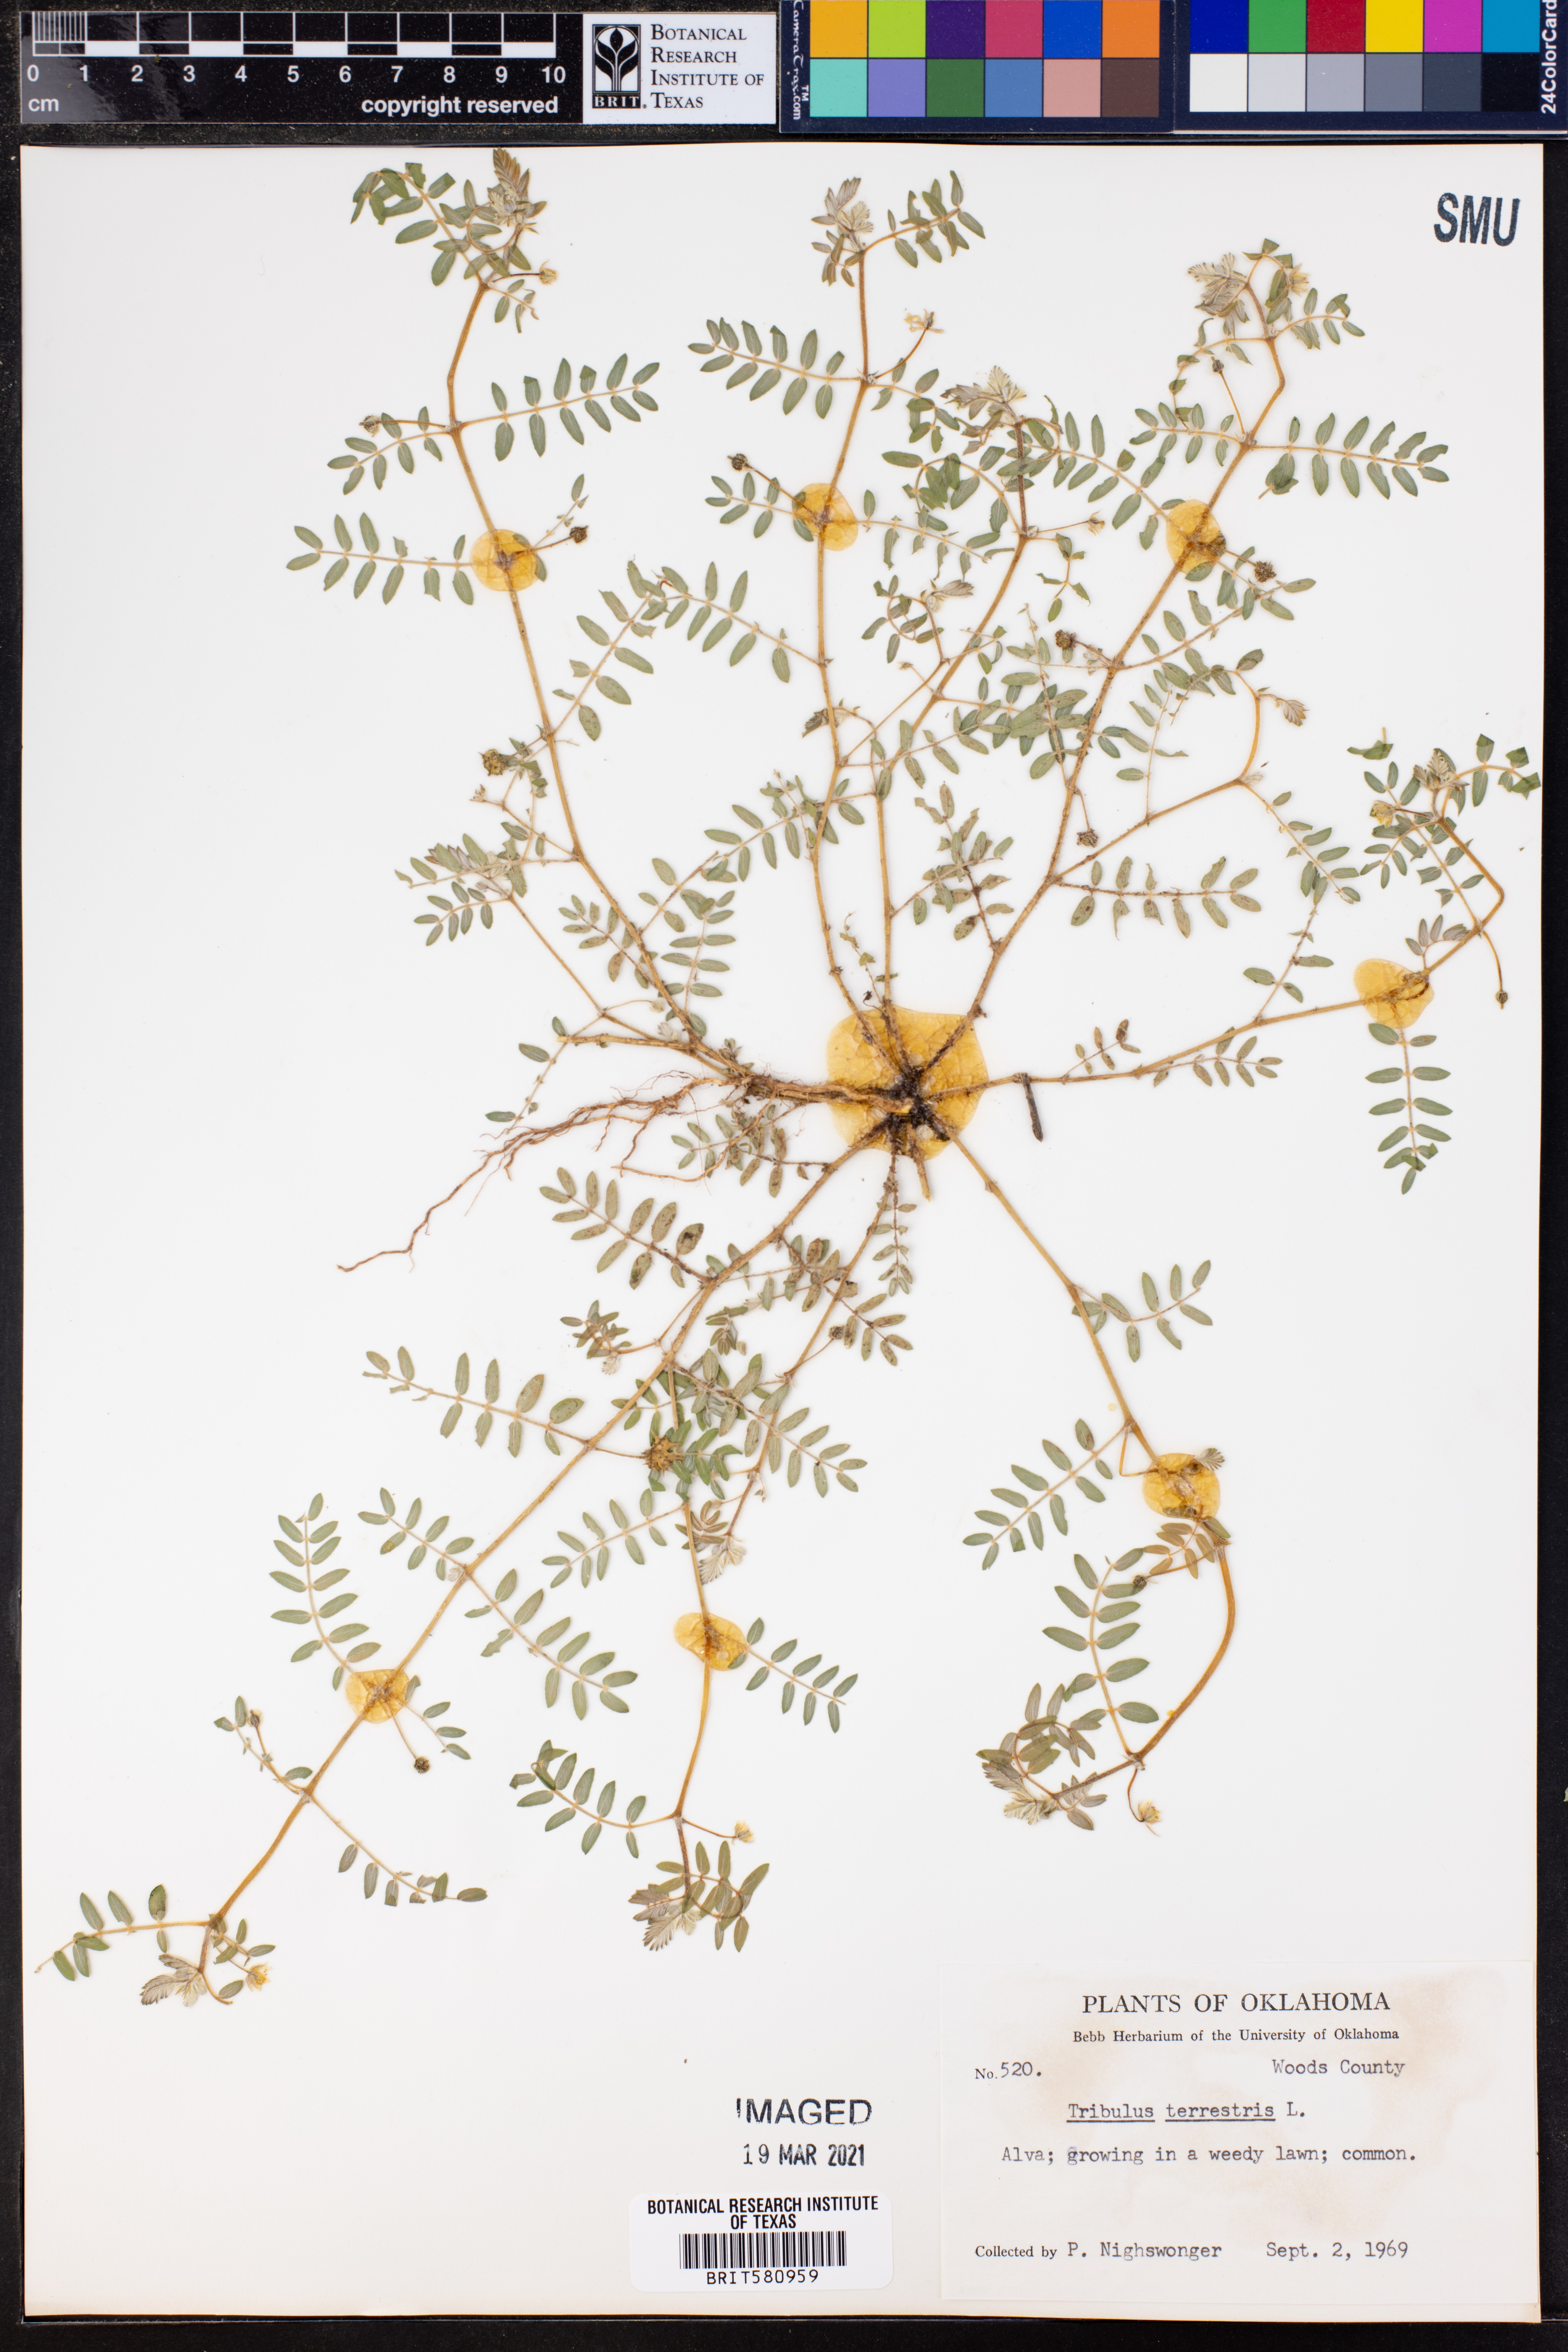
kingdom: Plantae
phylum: Tracheophyta
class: Magnoliopsida
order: Zygophyllales
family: Zygophyllaceae
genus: Tribulus
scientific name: Tribulus terrestris
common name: Puncturevine
